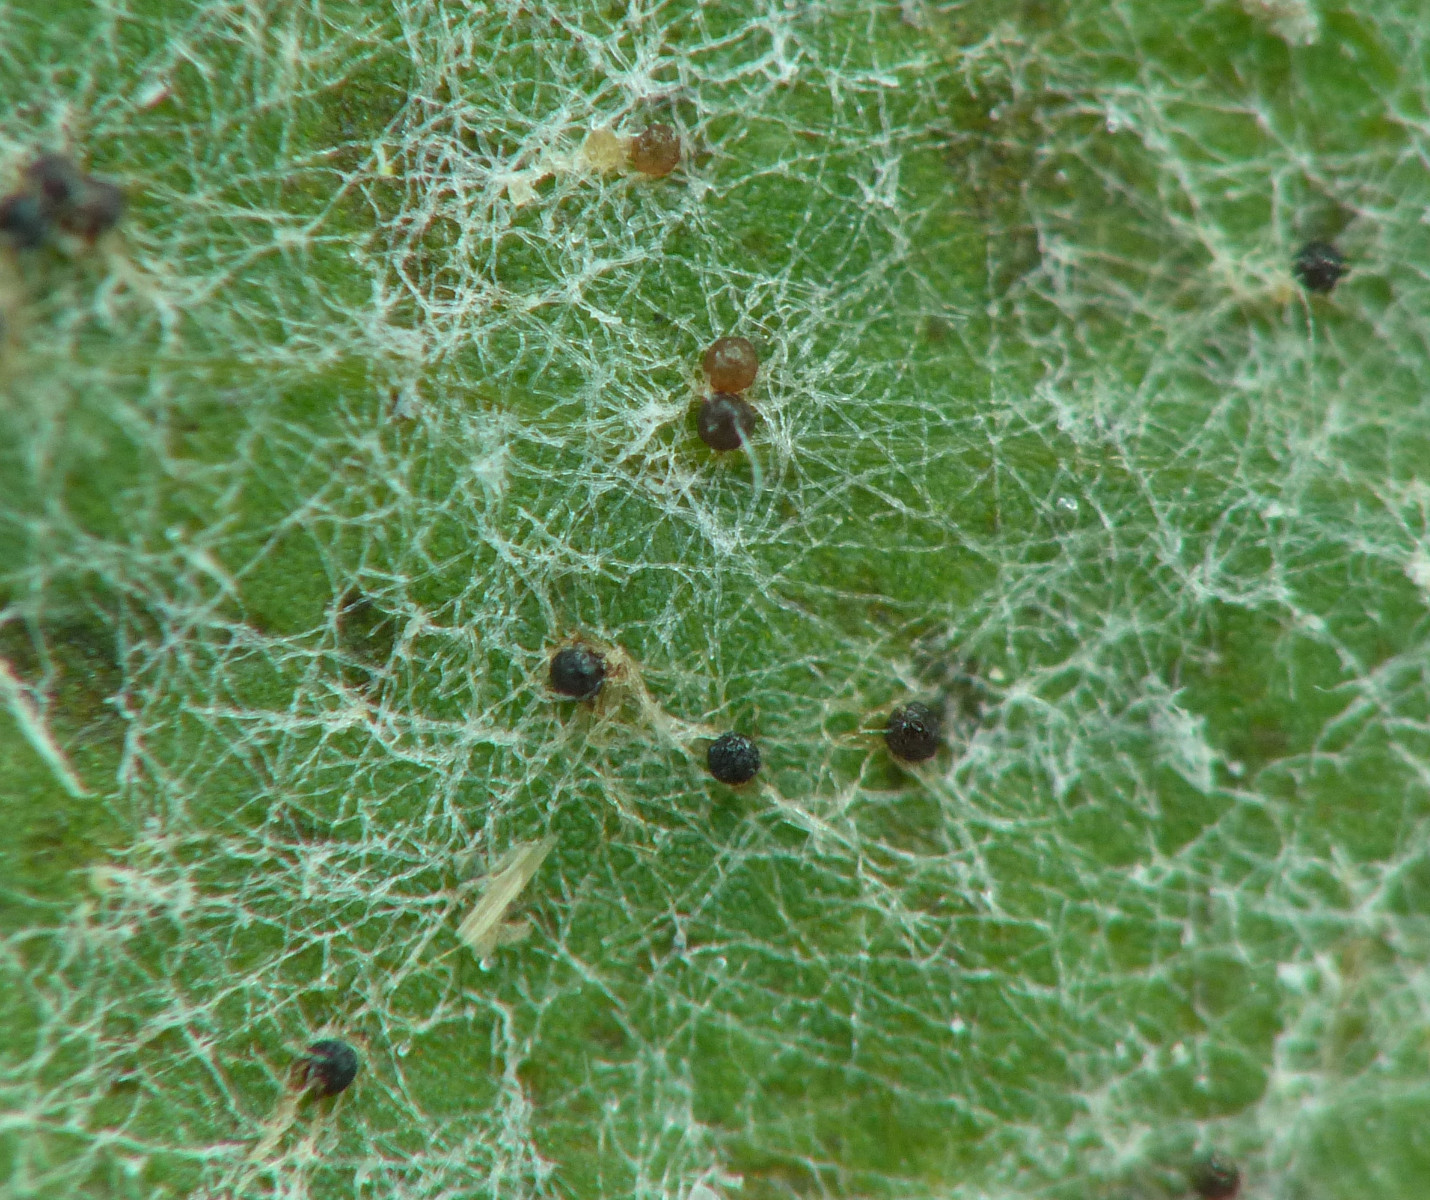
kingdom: Fungi
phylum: Ascomycota
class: Leotiomycetes
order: Helotiales
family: Erysiphaceae
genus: Podosphaera
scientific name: Podosphaera balsaminae
